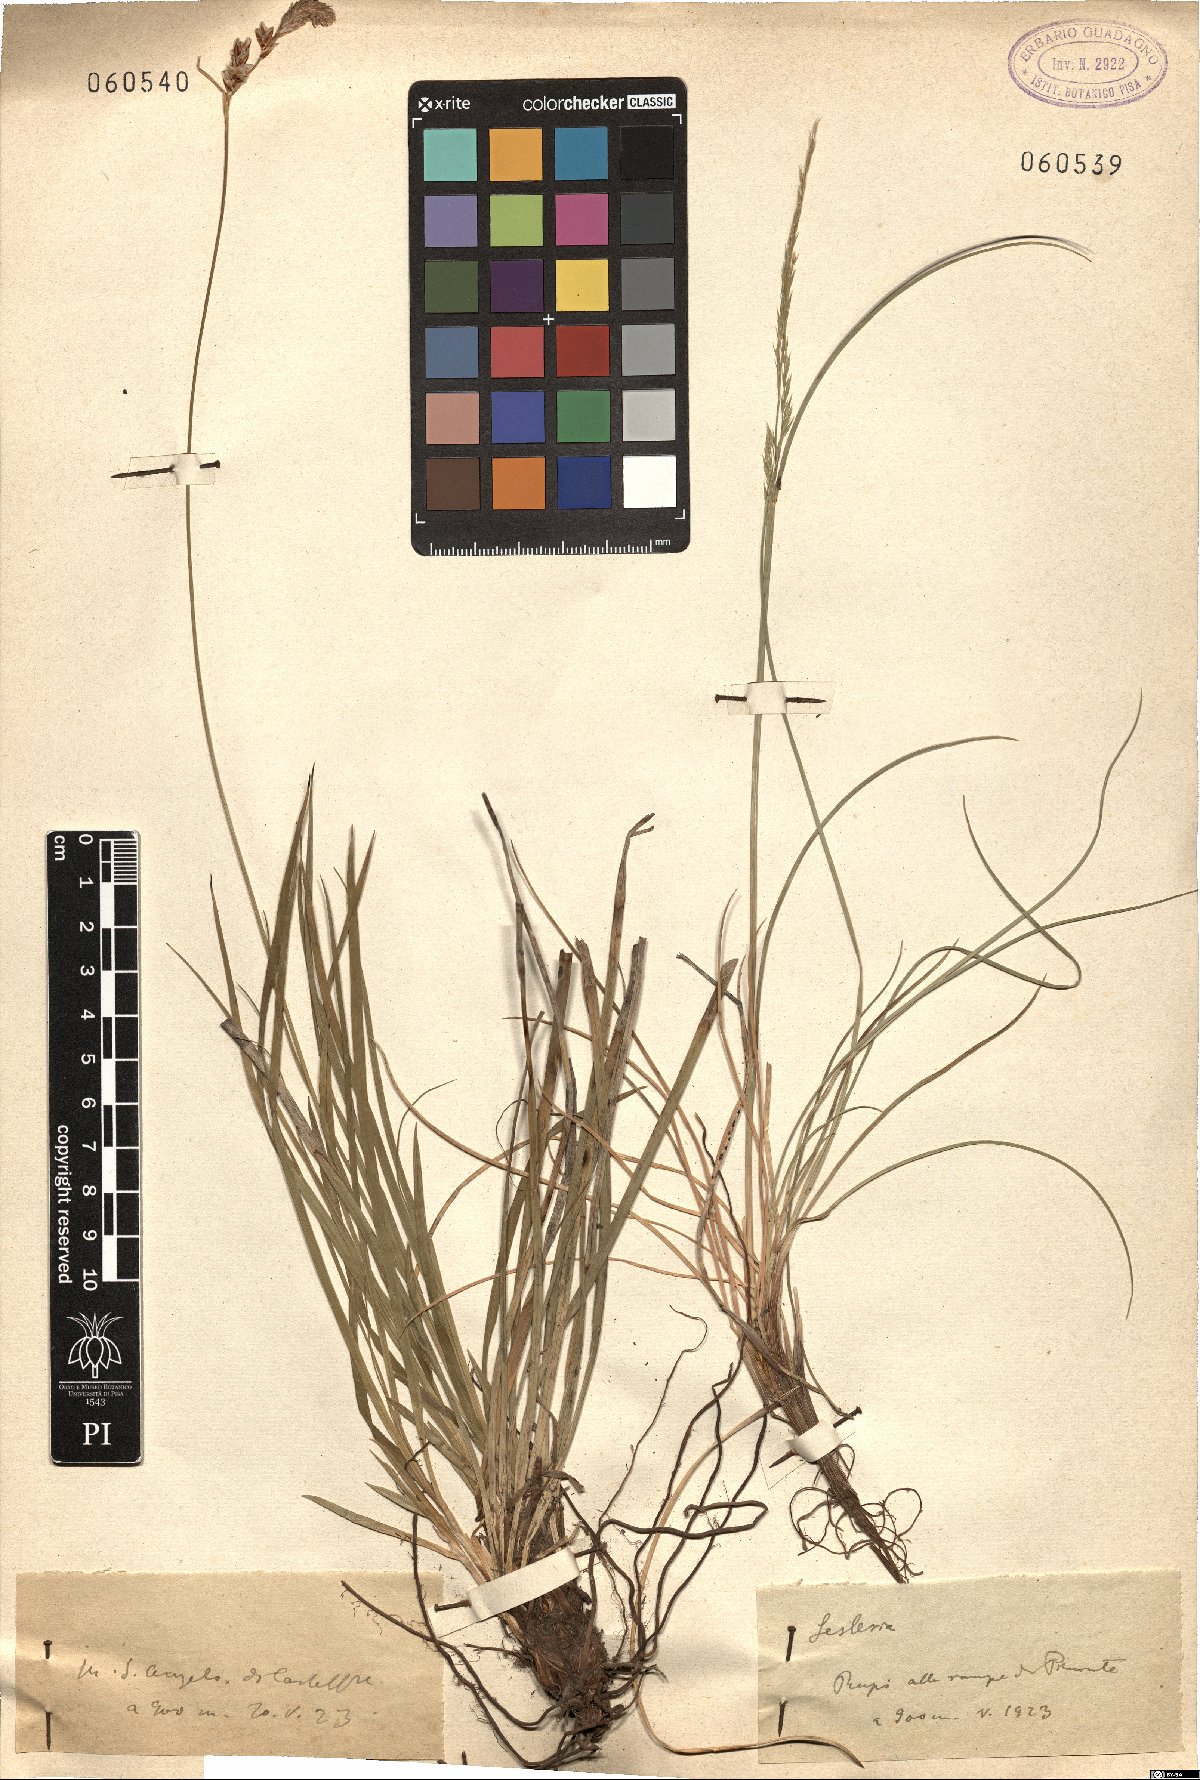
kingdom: Plantae
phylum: Tracheophyta
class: Liliopsida
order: Poales
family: Poaceae
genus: Sesleria
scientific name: Sesleria
